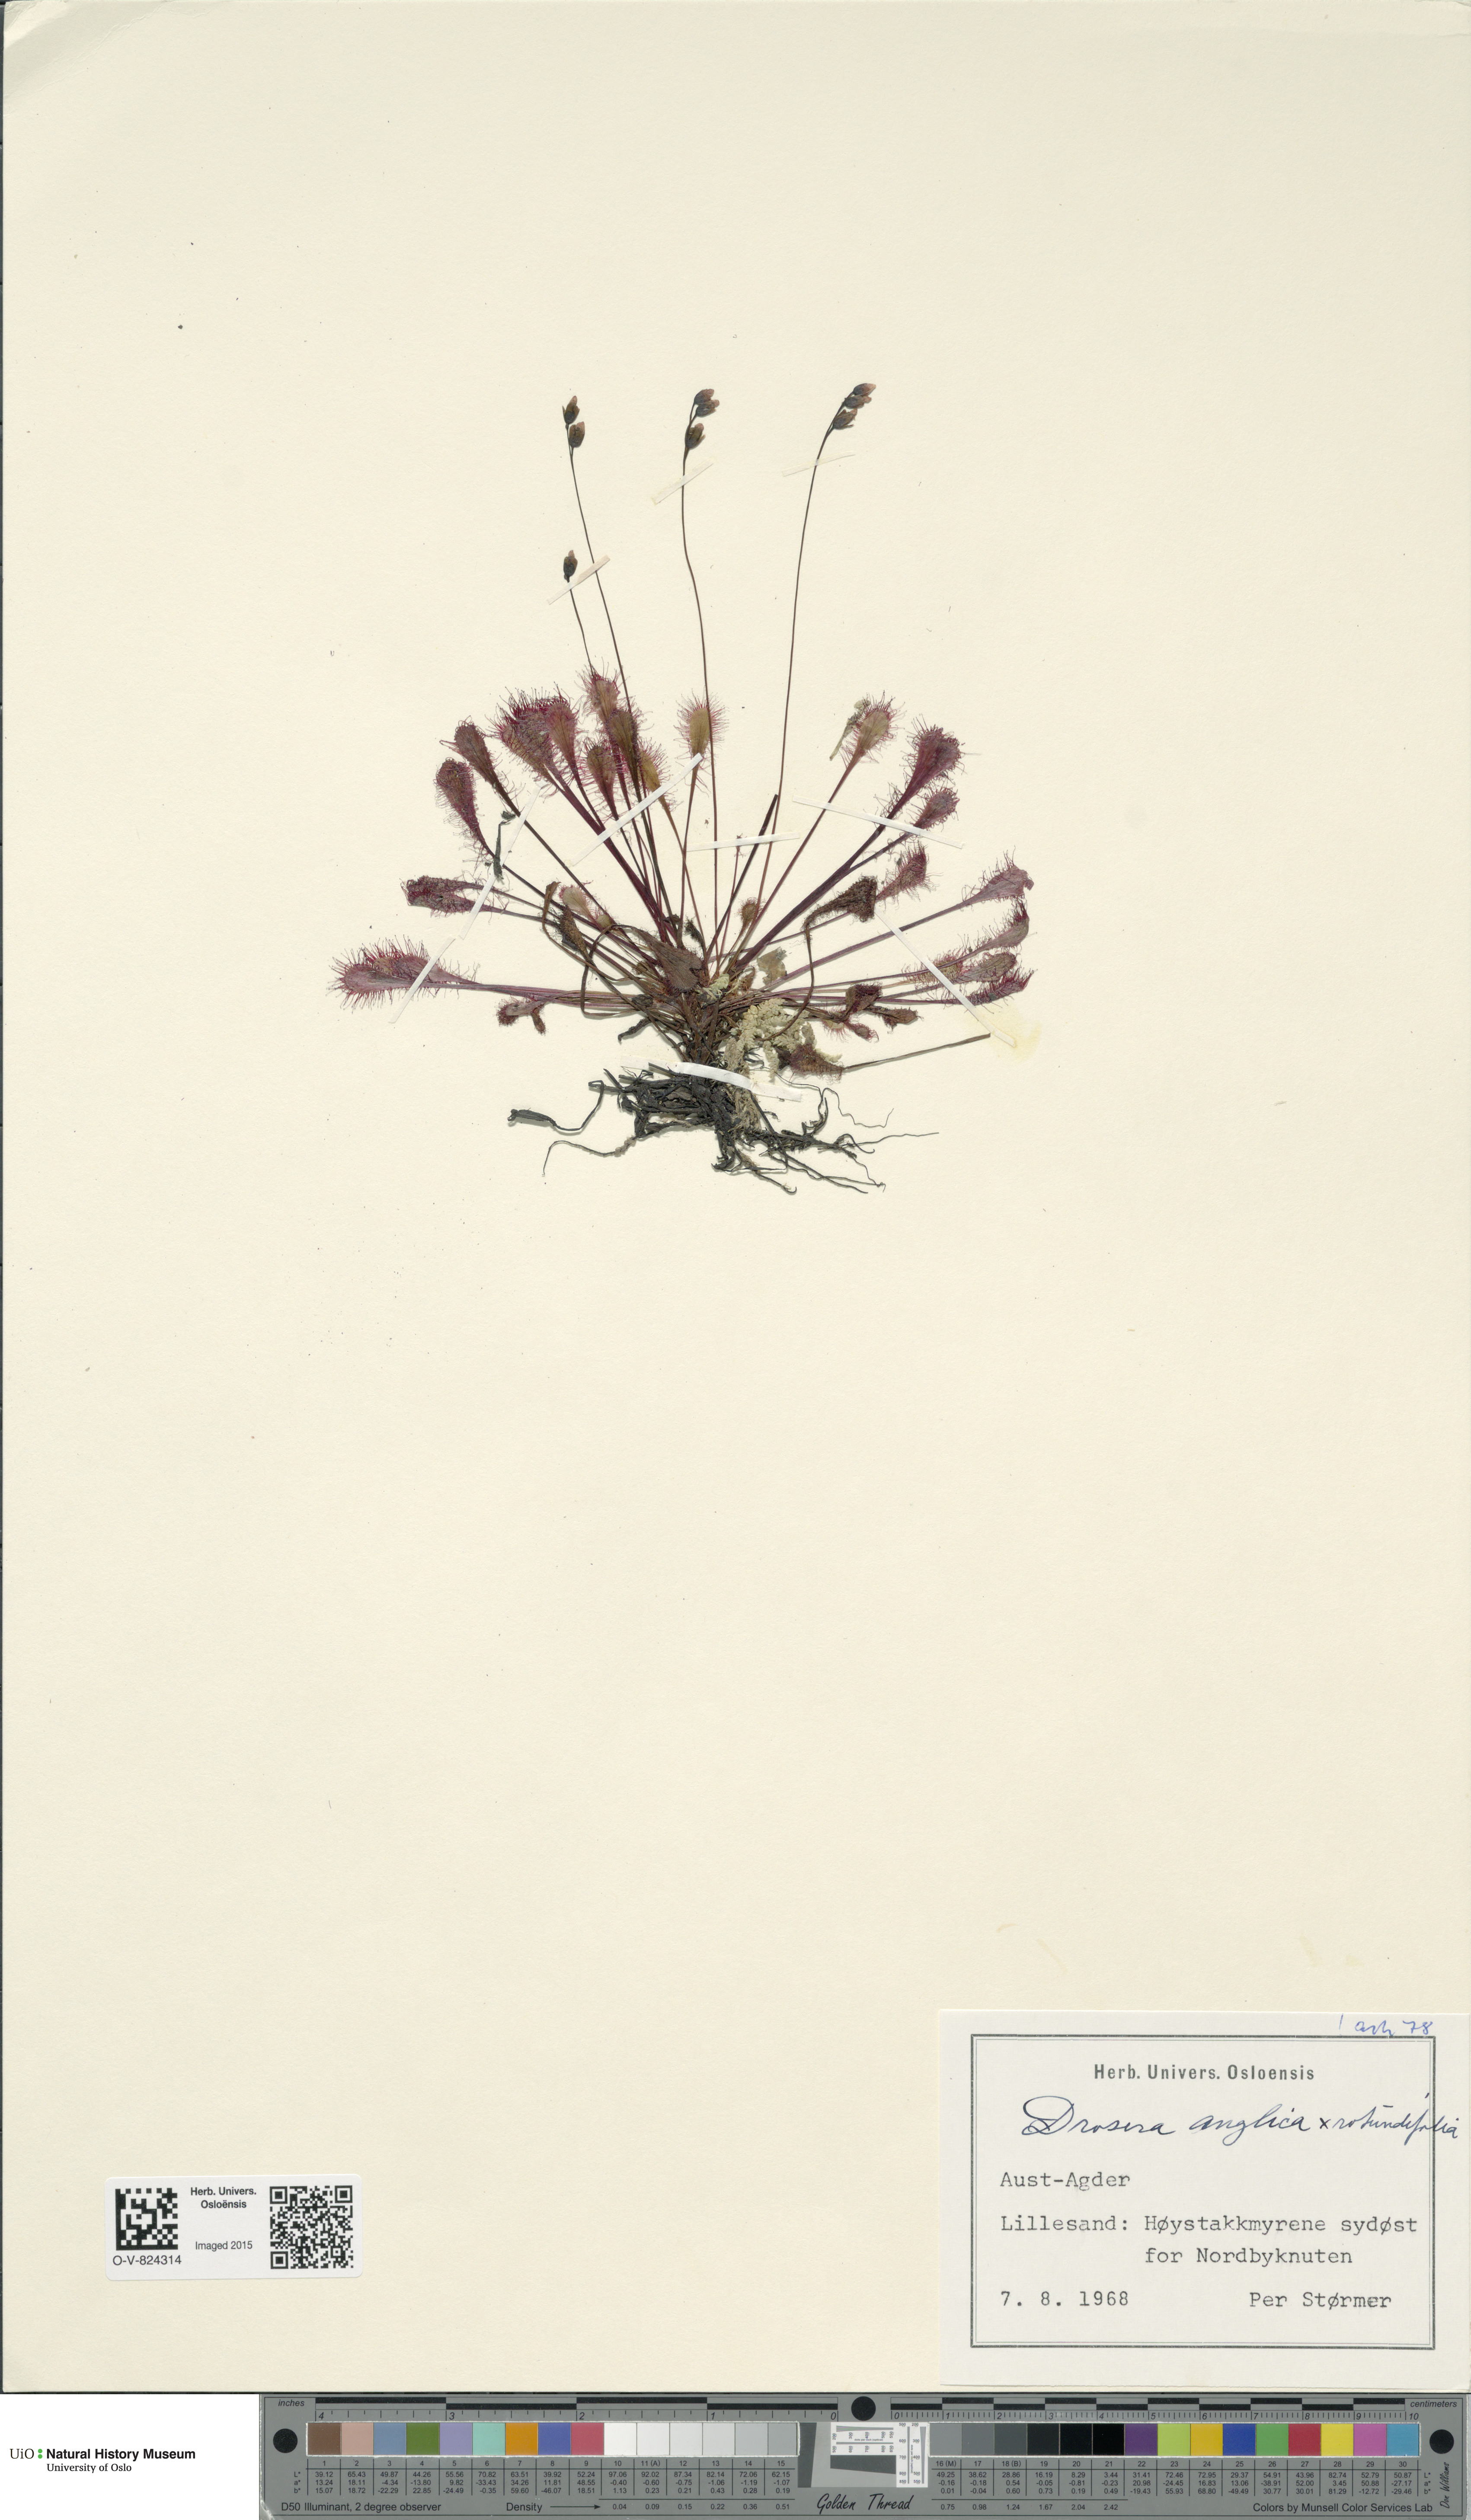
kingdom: Plantae
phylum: Tracheophyta
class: Magnoliopsida
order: Caryophyllales
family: Droseraceae
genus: Drosera
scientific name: Drosera
